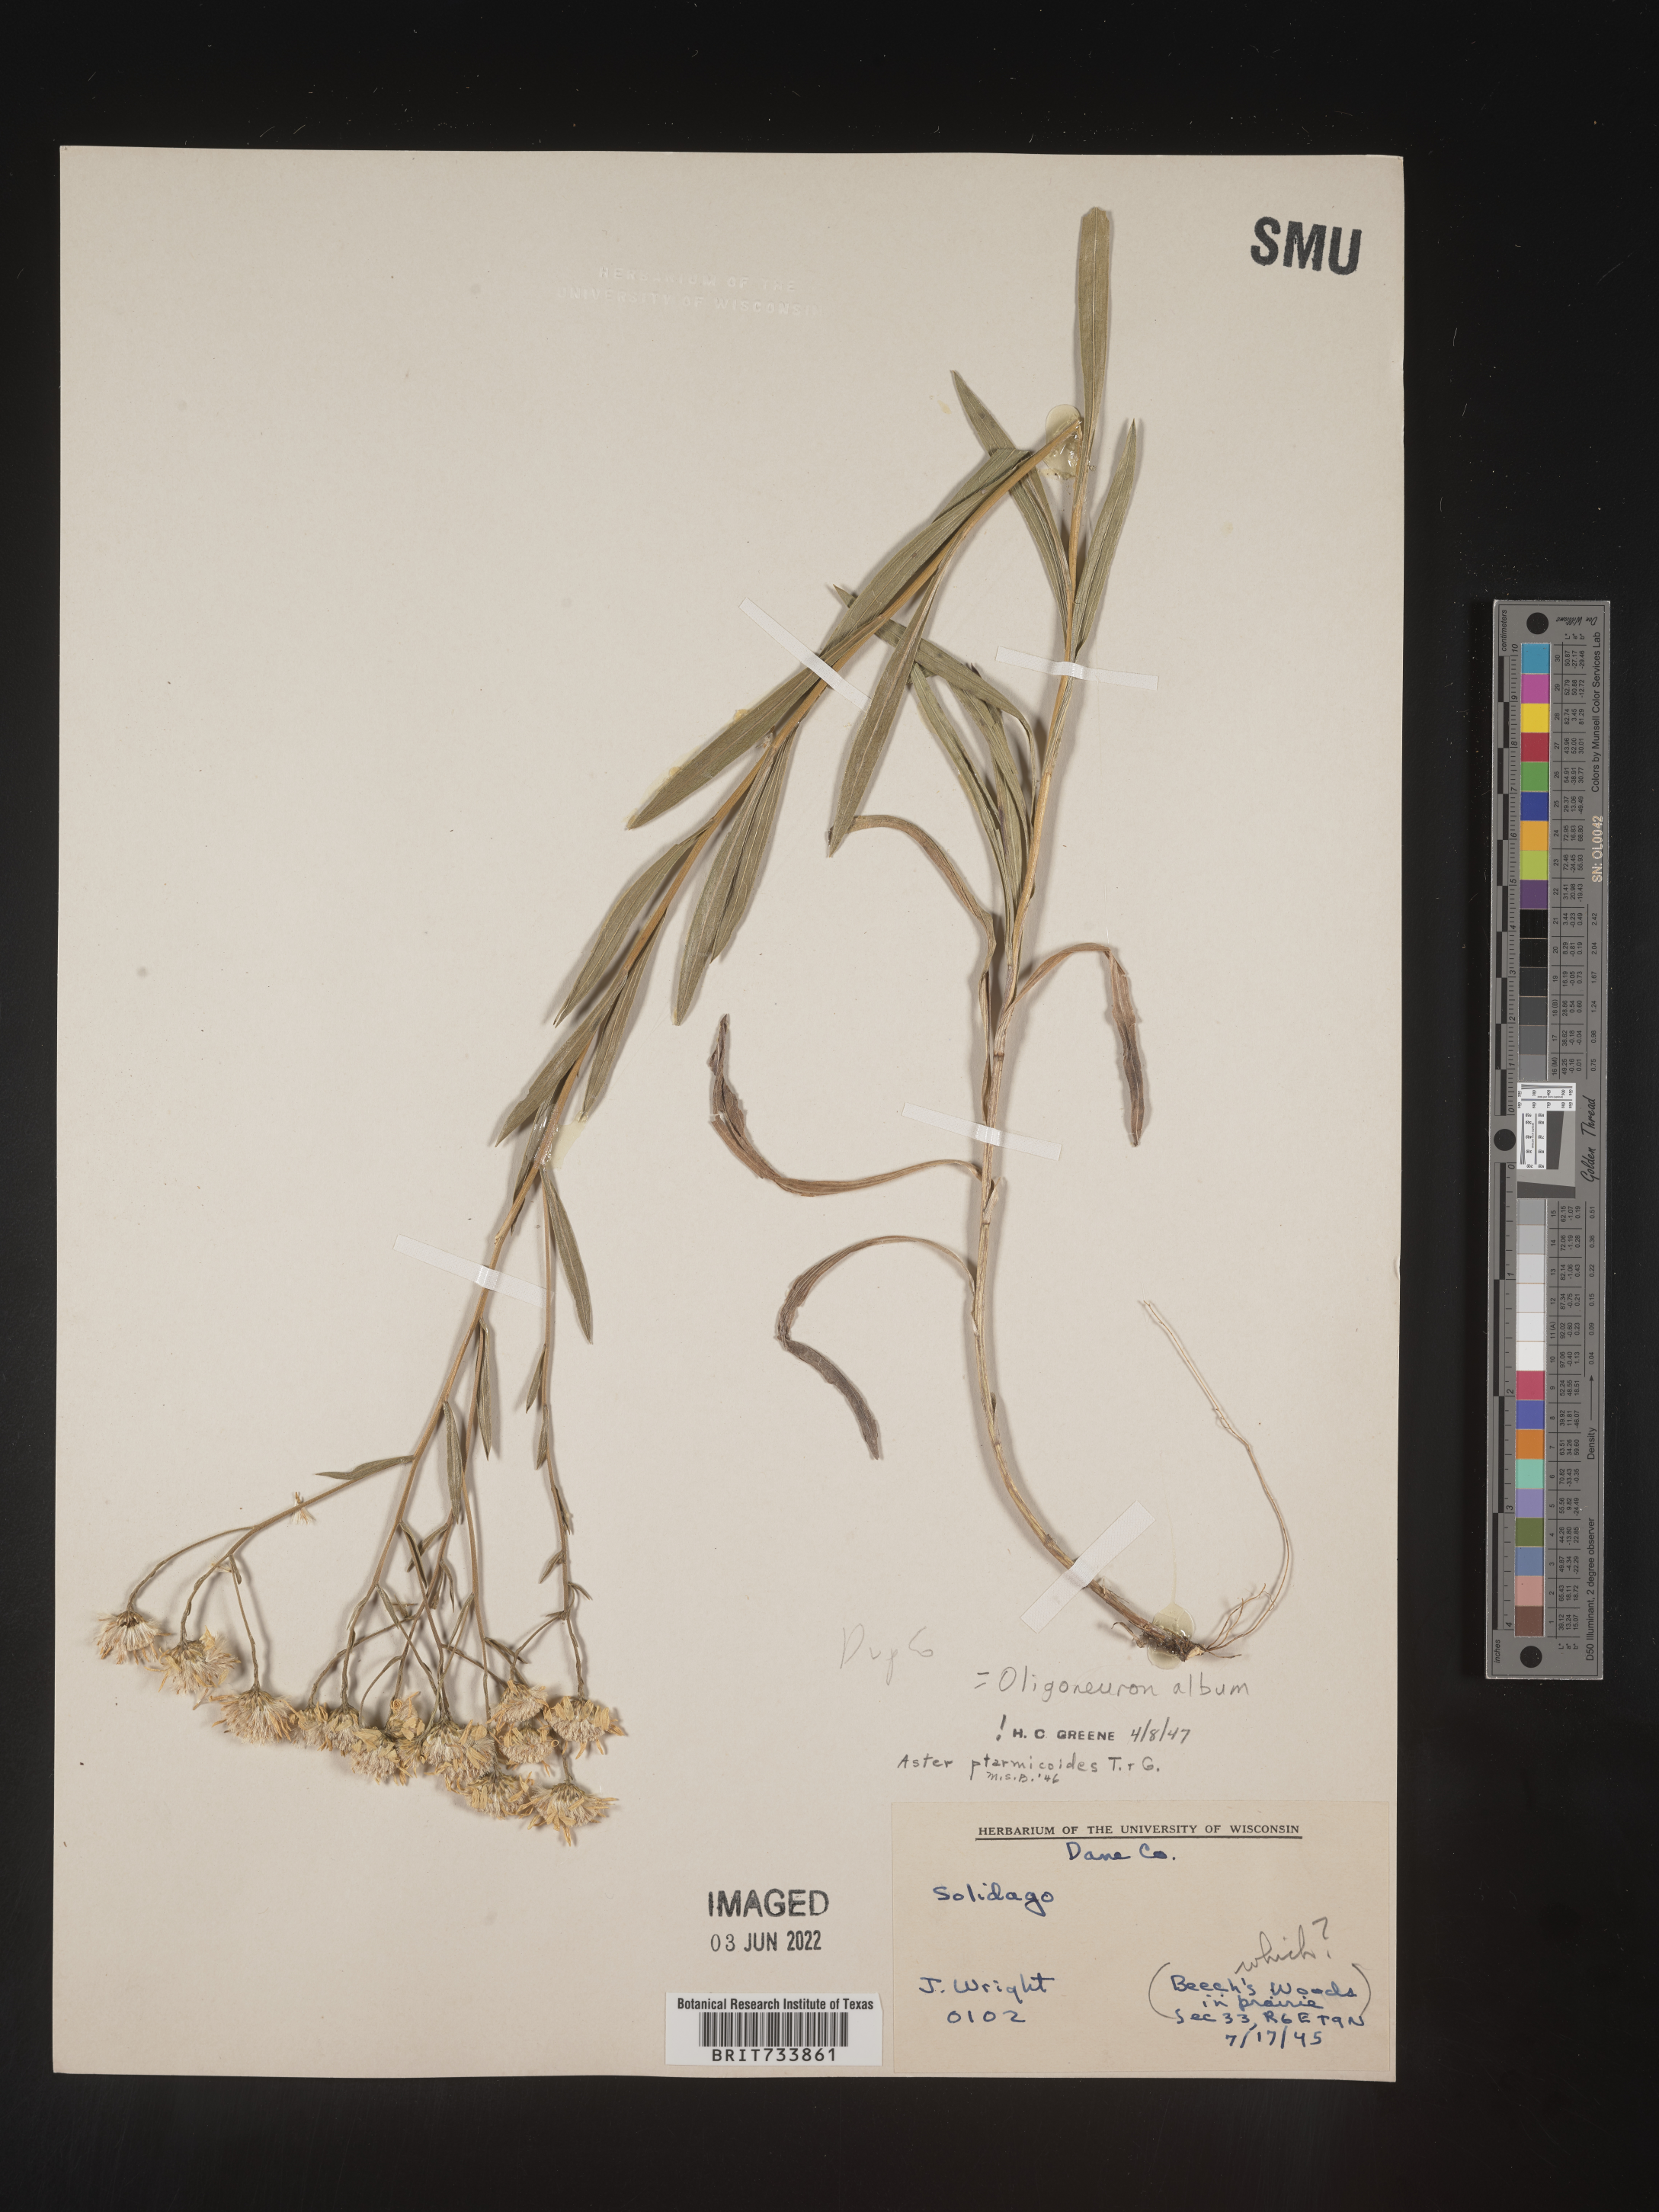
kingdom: Plantae
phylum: Tracheophyta
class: Magnoliopsida
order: Asterales
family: Asteraceae
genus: Solidago
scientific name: Solidago ptarmicoides
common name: White flat-top goldenrod
